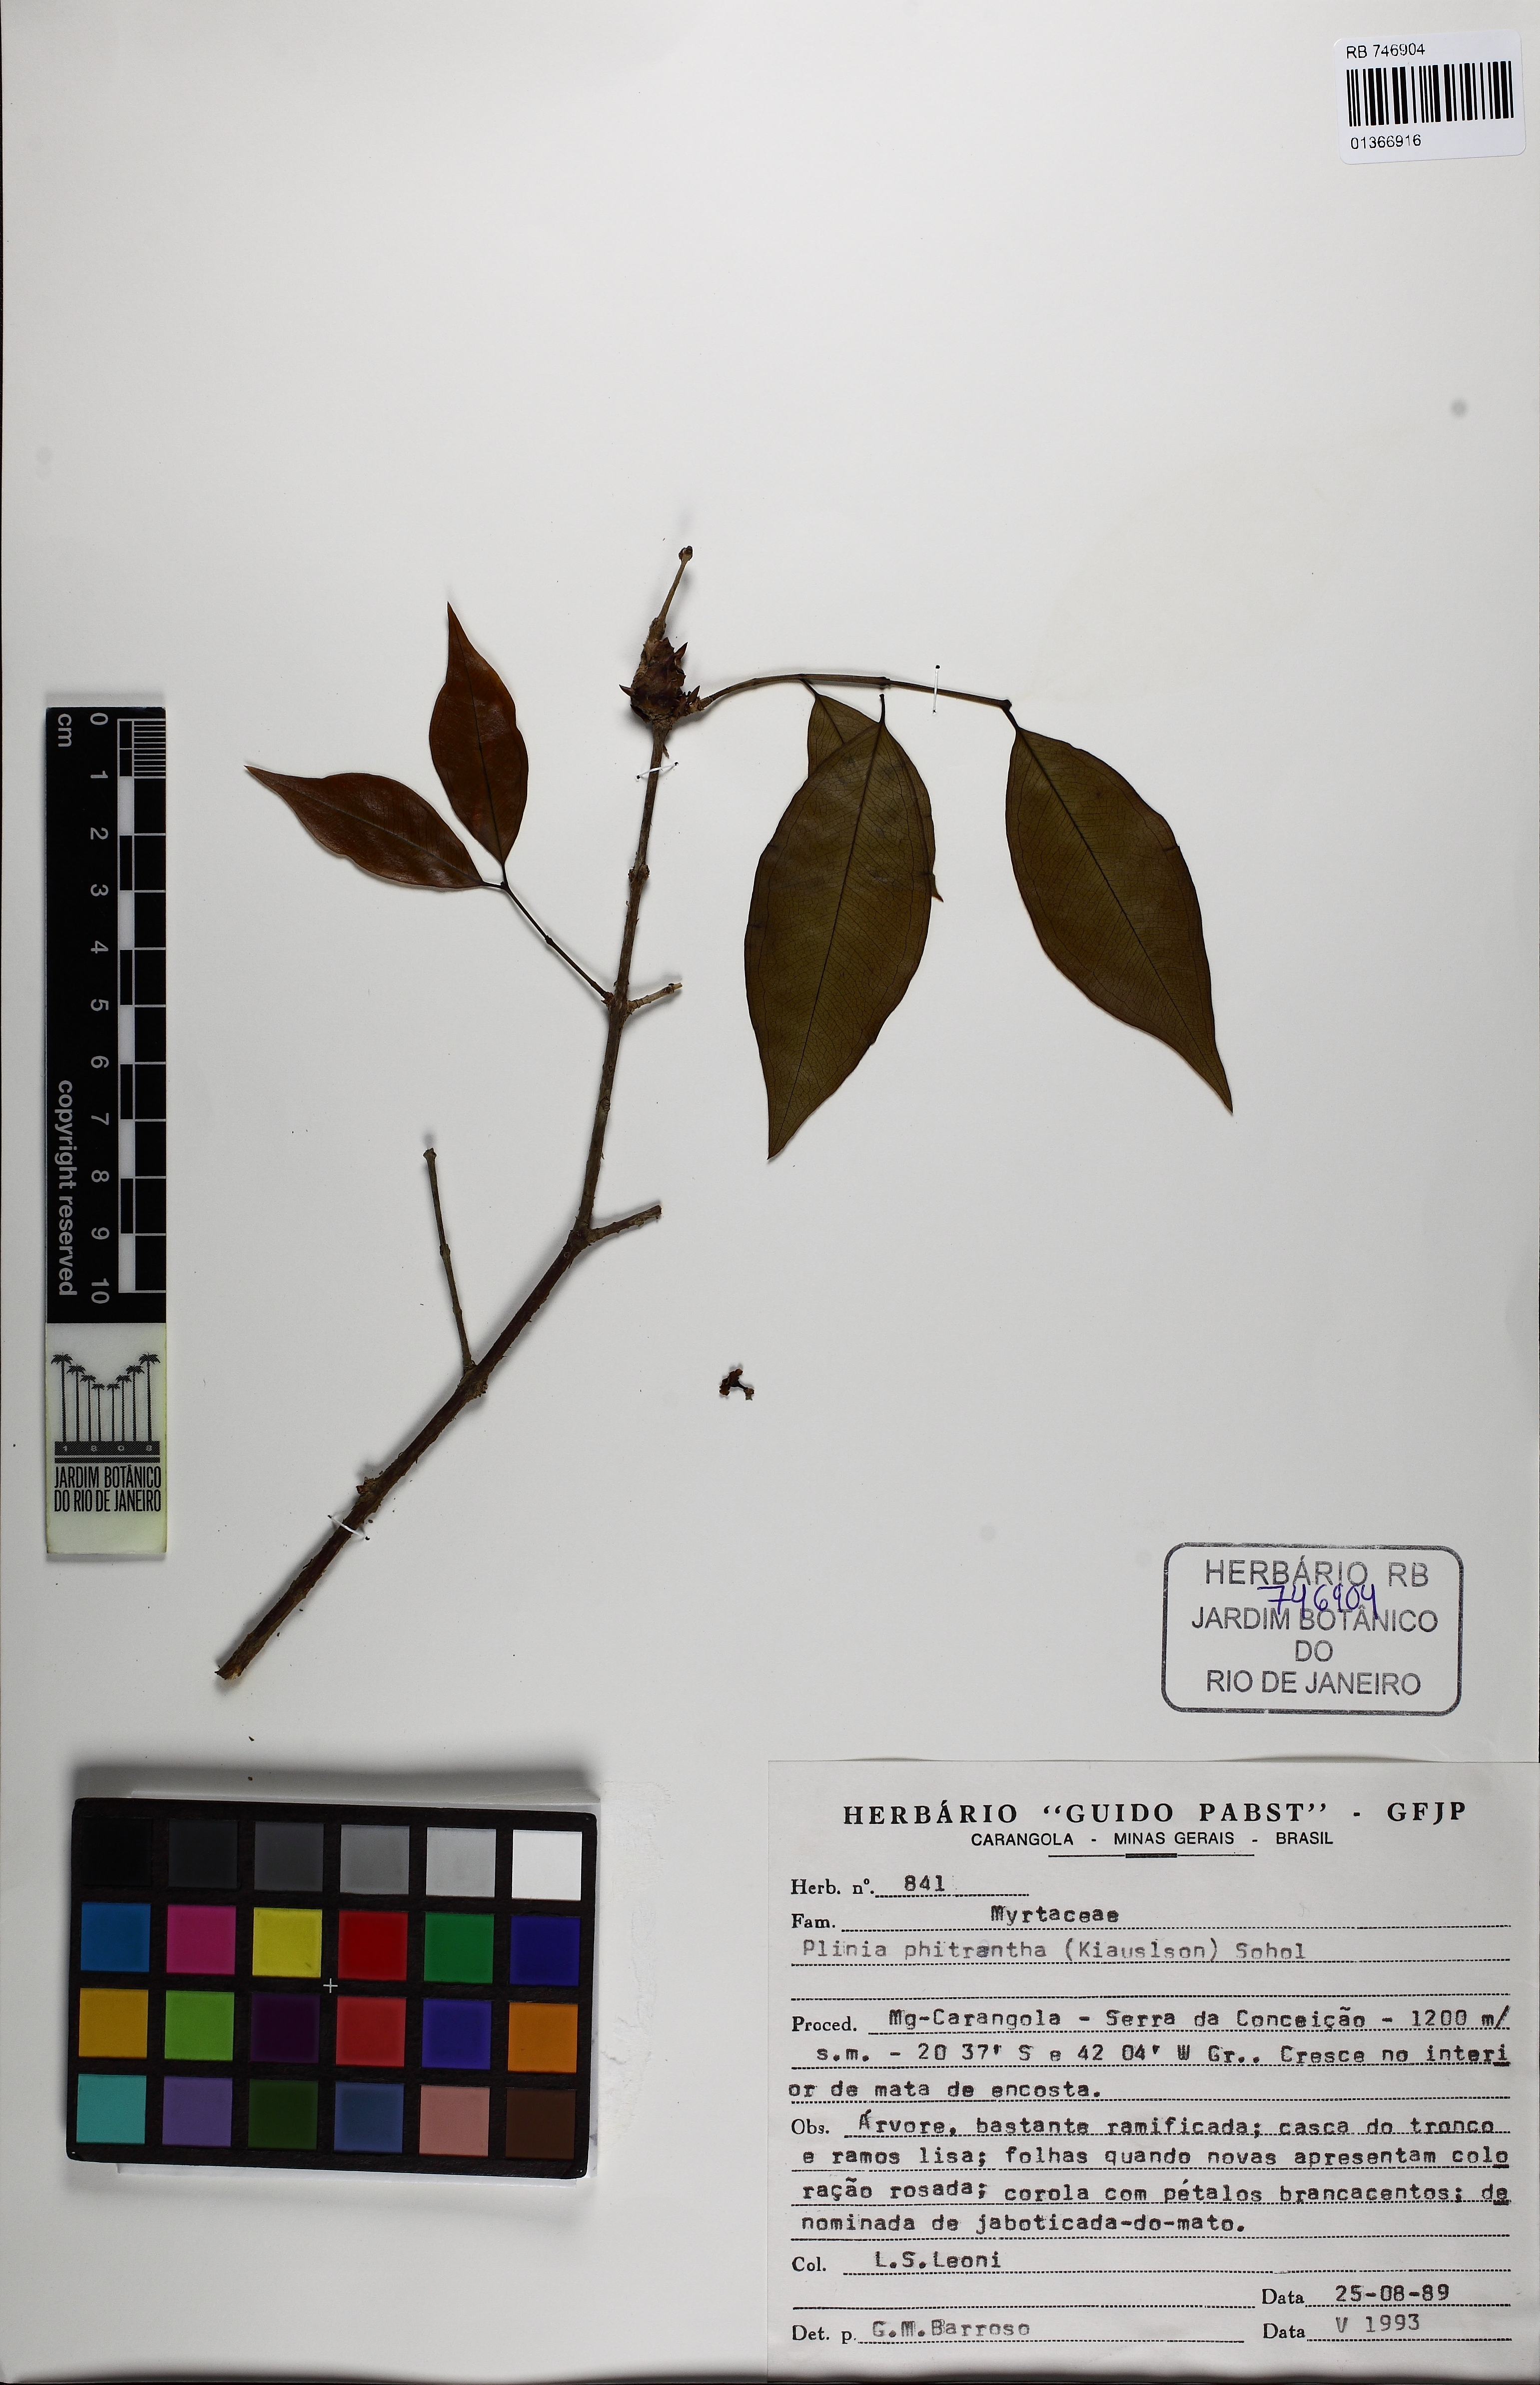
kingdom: Plantae
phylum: Tracheophyta
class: Magnoliopsida
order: Myrtales
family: Myrtaceae
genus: Plinia
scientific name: Plinia cauliflora
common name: Brazilian grapetree
